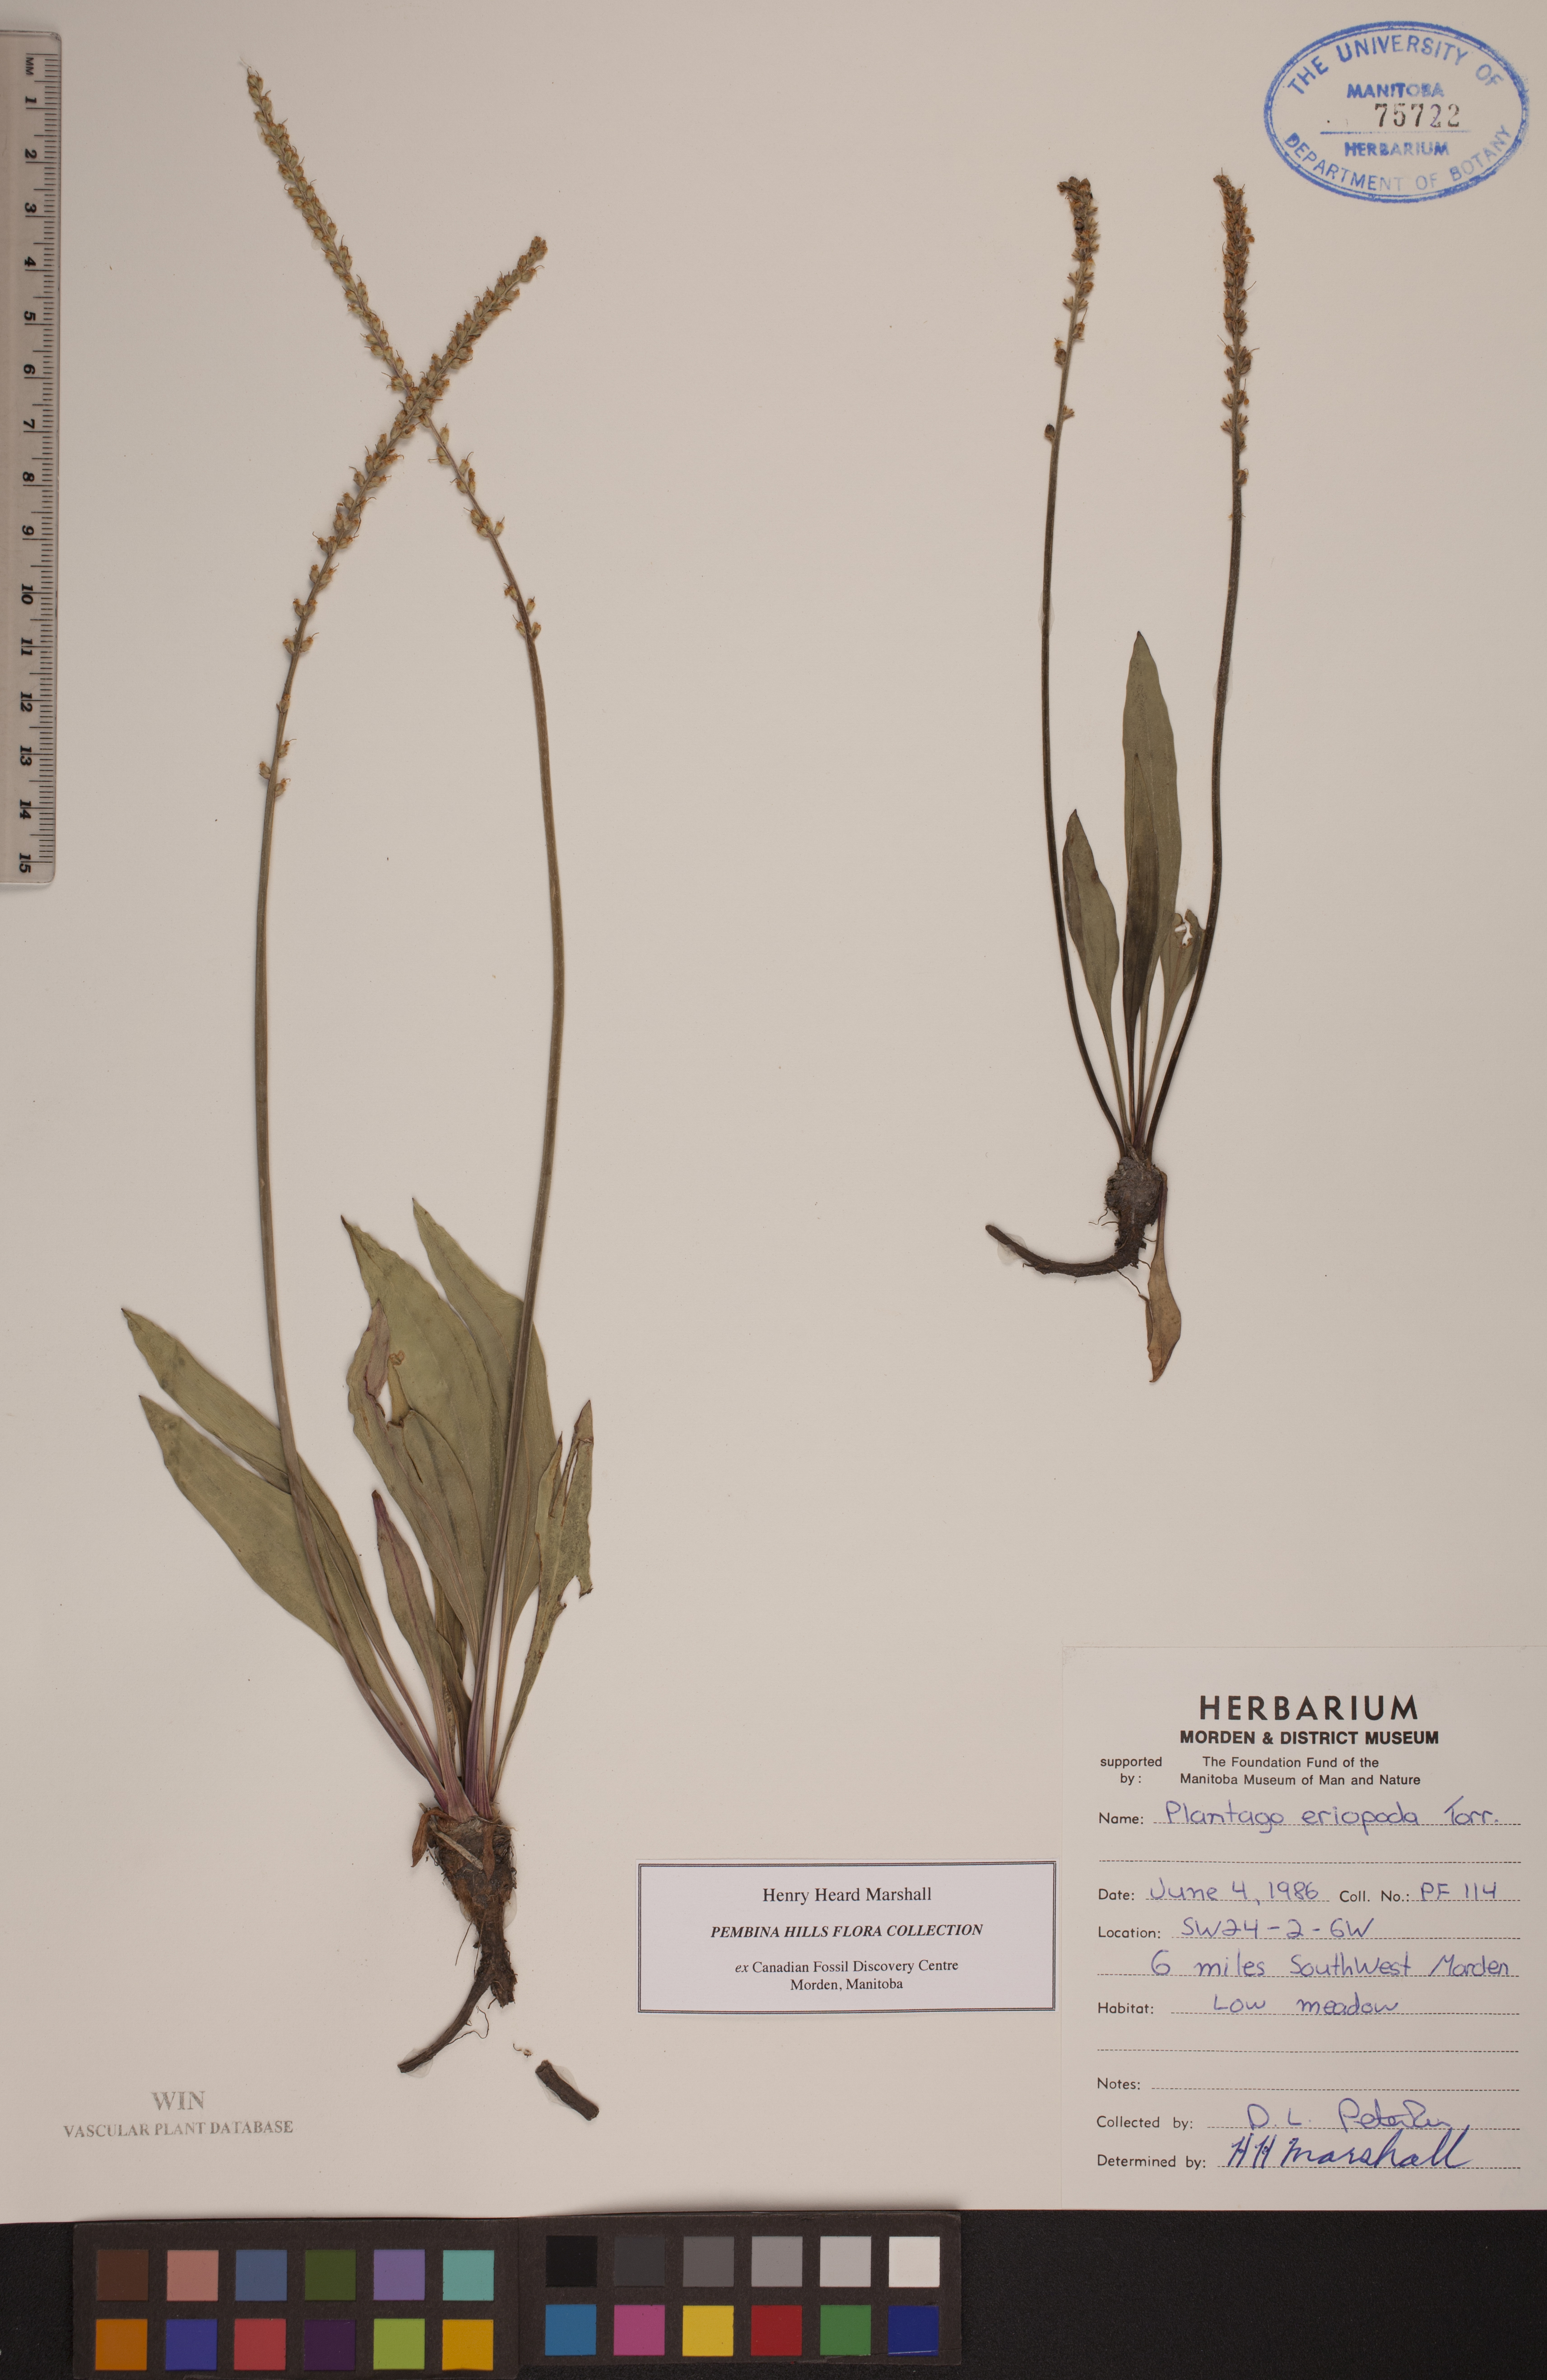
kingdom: Plantae
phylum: Tracheophyta
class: Magnoliopsida
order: Lamiales
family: Plantaginaceae
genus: Plantago
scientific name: Plantago eriopoda
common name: Alkali plantain
